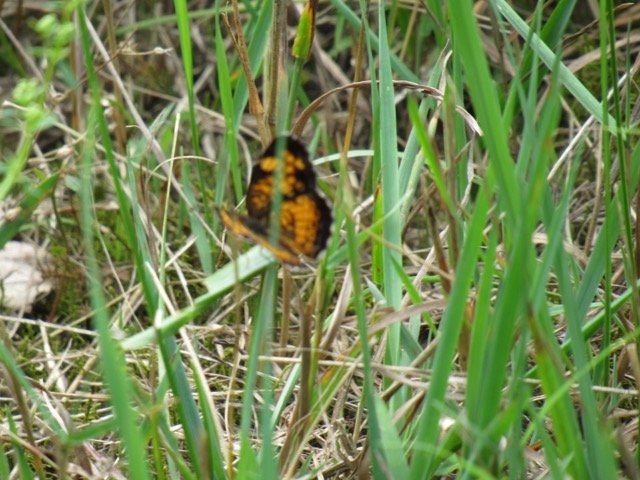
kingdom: Animalia
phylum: Arthropoda
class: Insecta
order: Lepidoptera
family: Nymphalidae
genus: Phyciodes
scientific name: Phyciodes tharos
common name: Pearl Crescent
